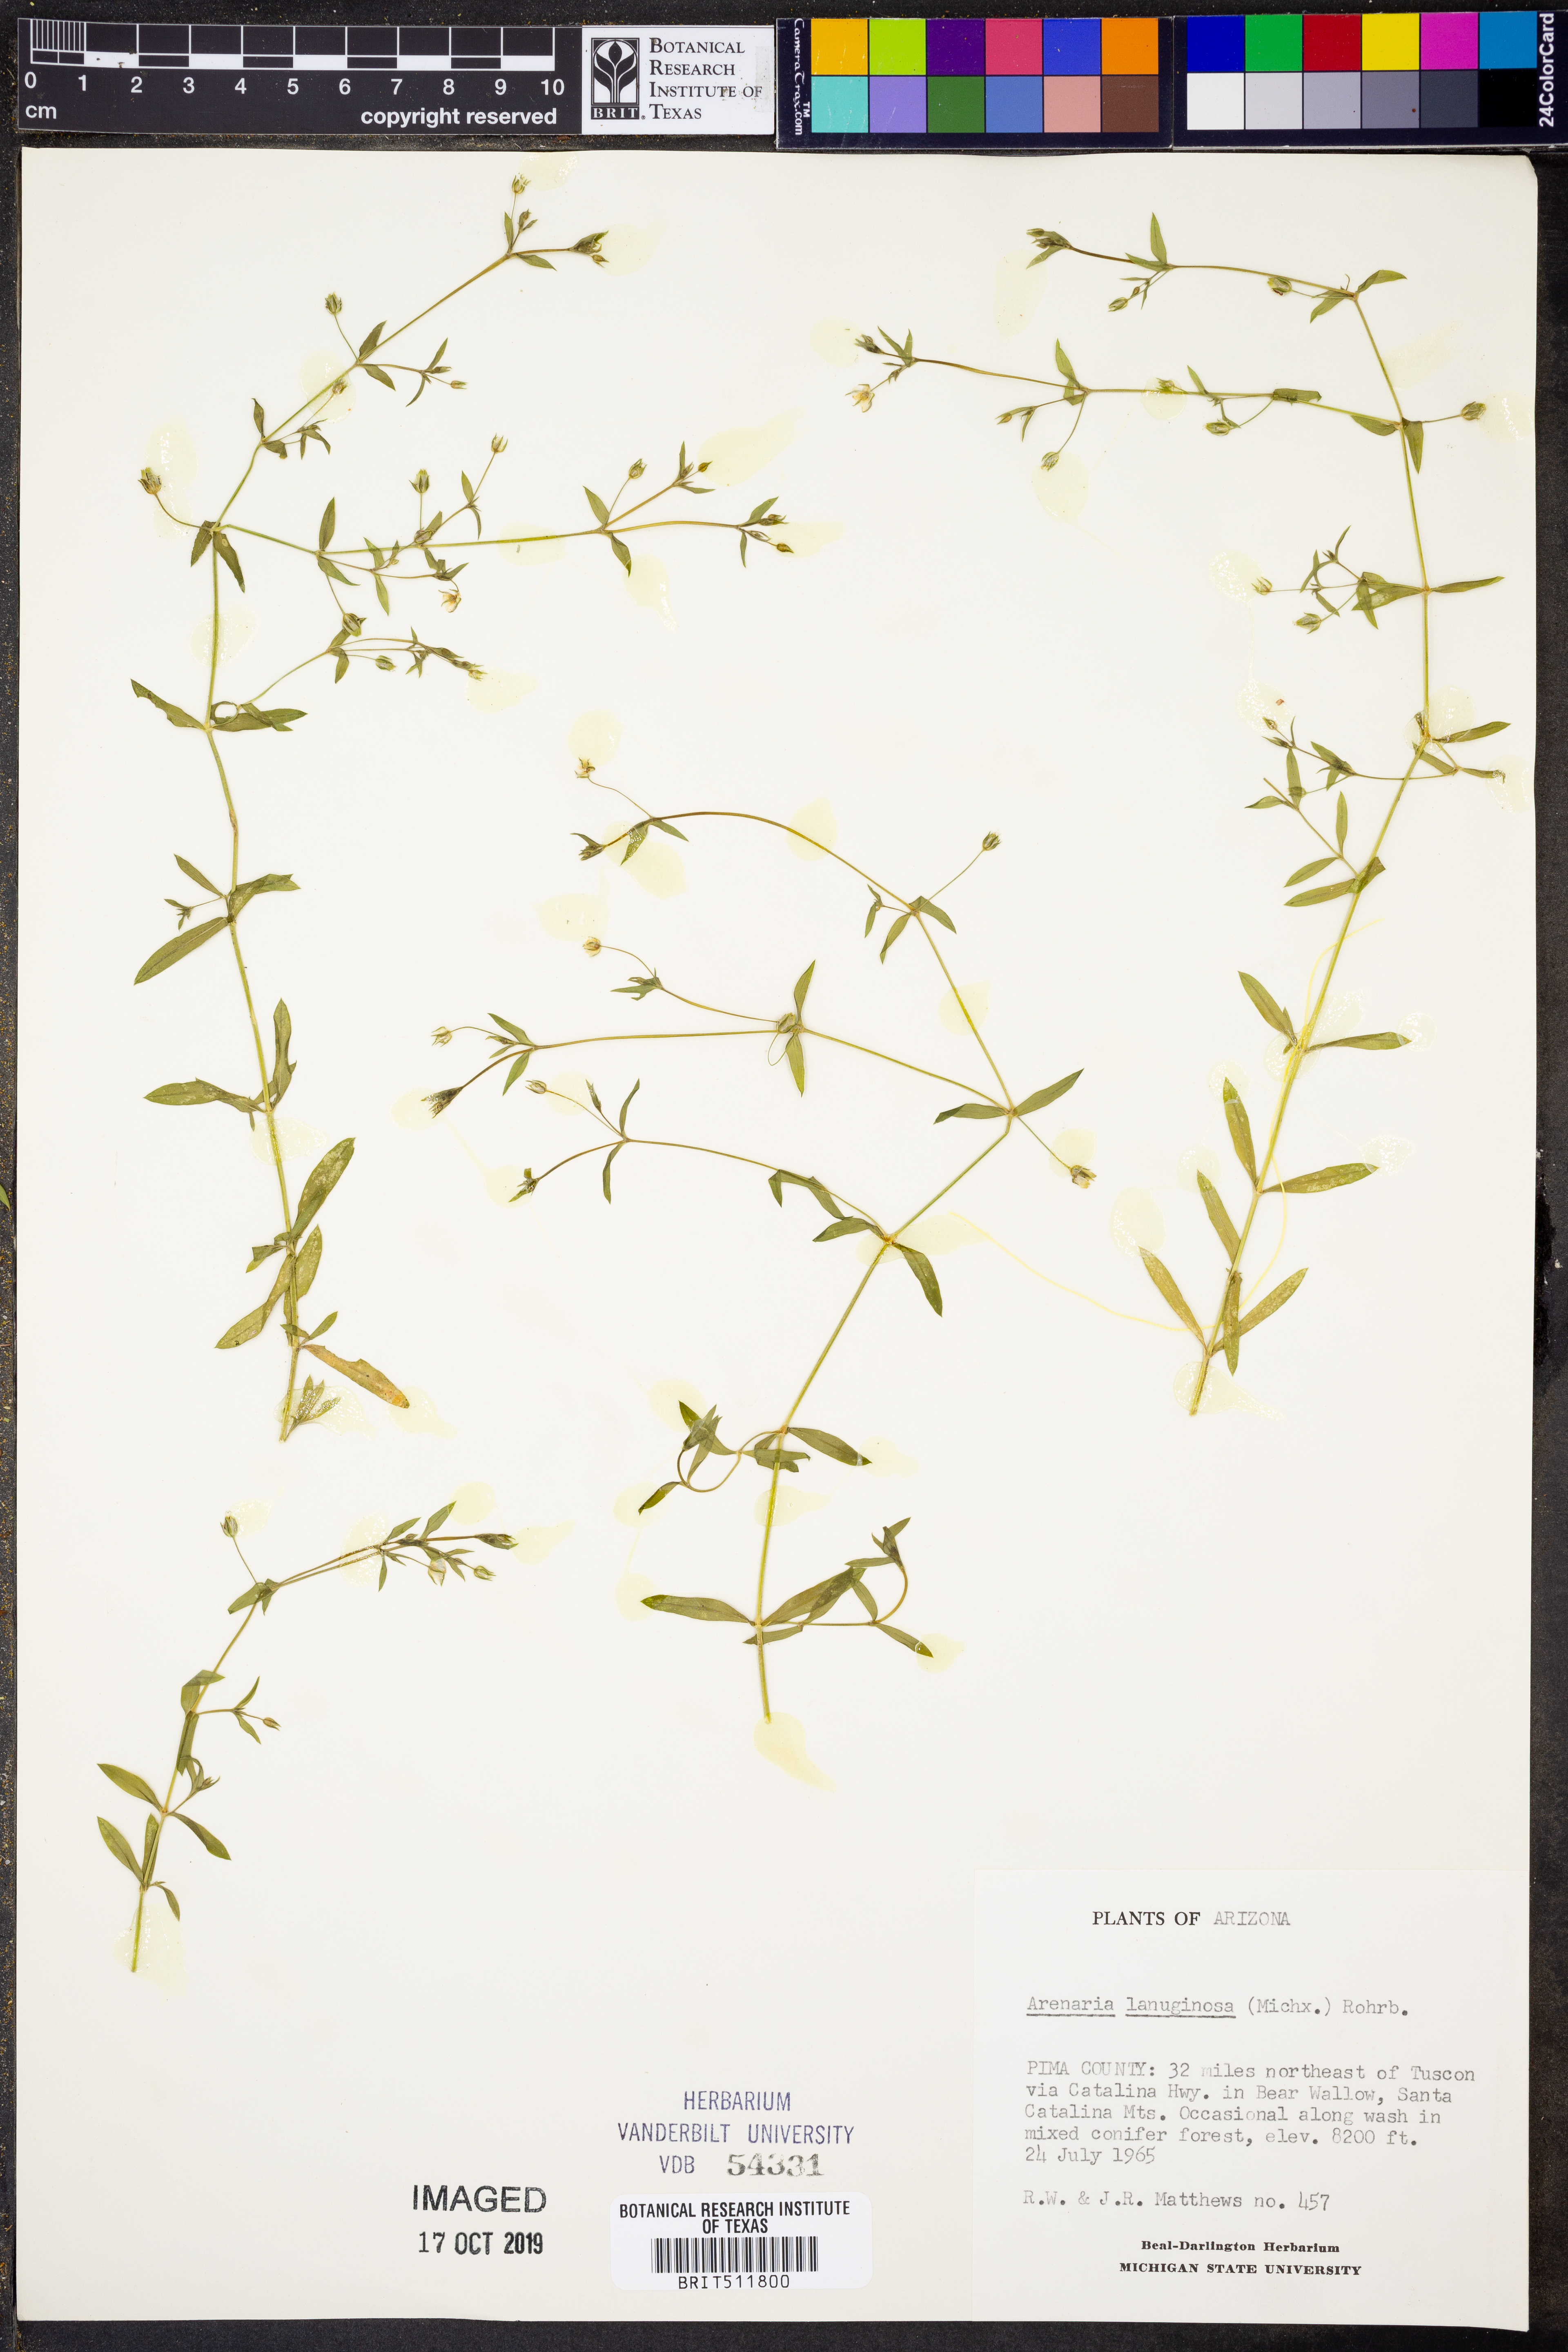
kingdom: Plantae
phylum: Tracheophyta
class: Magnoliopsida
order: Caryophyllales
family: Caryophyllaceae
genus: Arenaria
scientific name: Arenaria lanuginosa
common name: Spread sandwort
